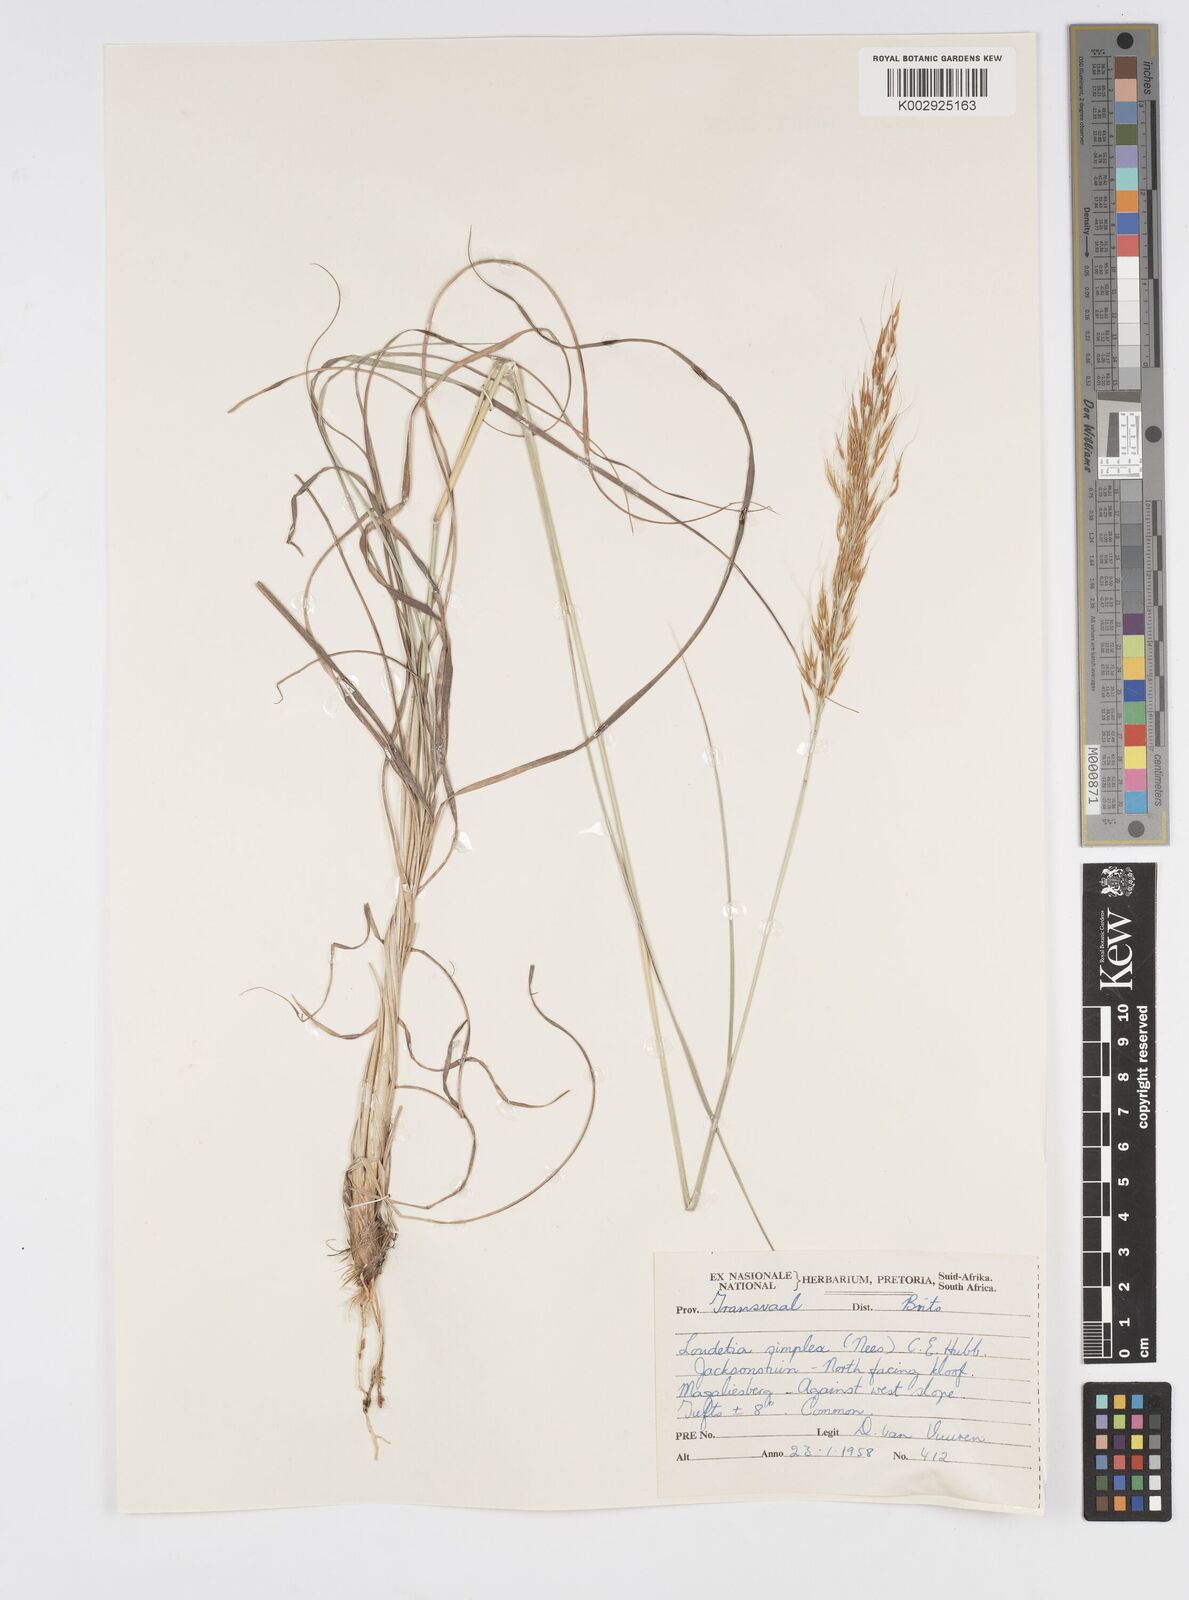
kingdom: Plantae
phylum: Tracheophyta
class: Liliopsida
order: Poales
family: Poaceae
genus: Loudetia
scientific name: Loudetia simplex
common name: Common russet grass
